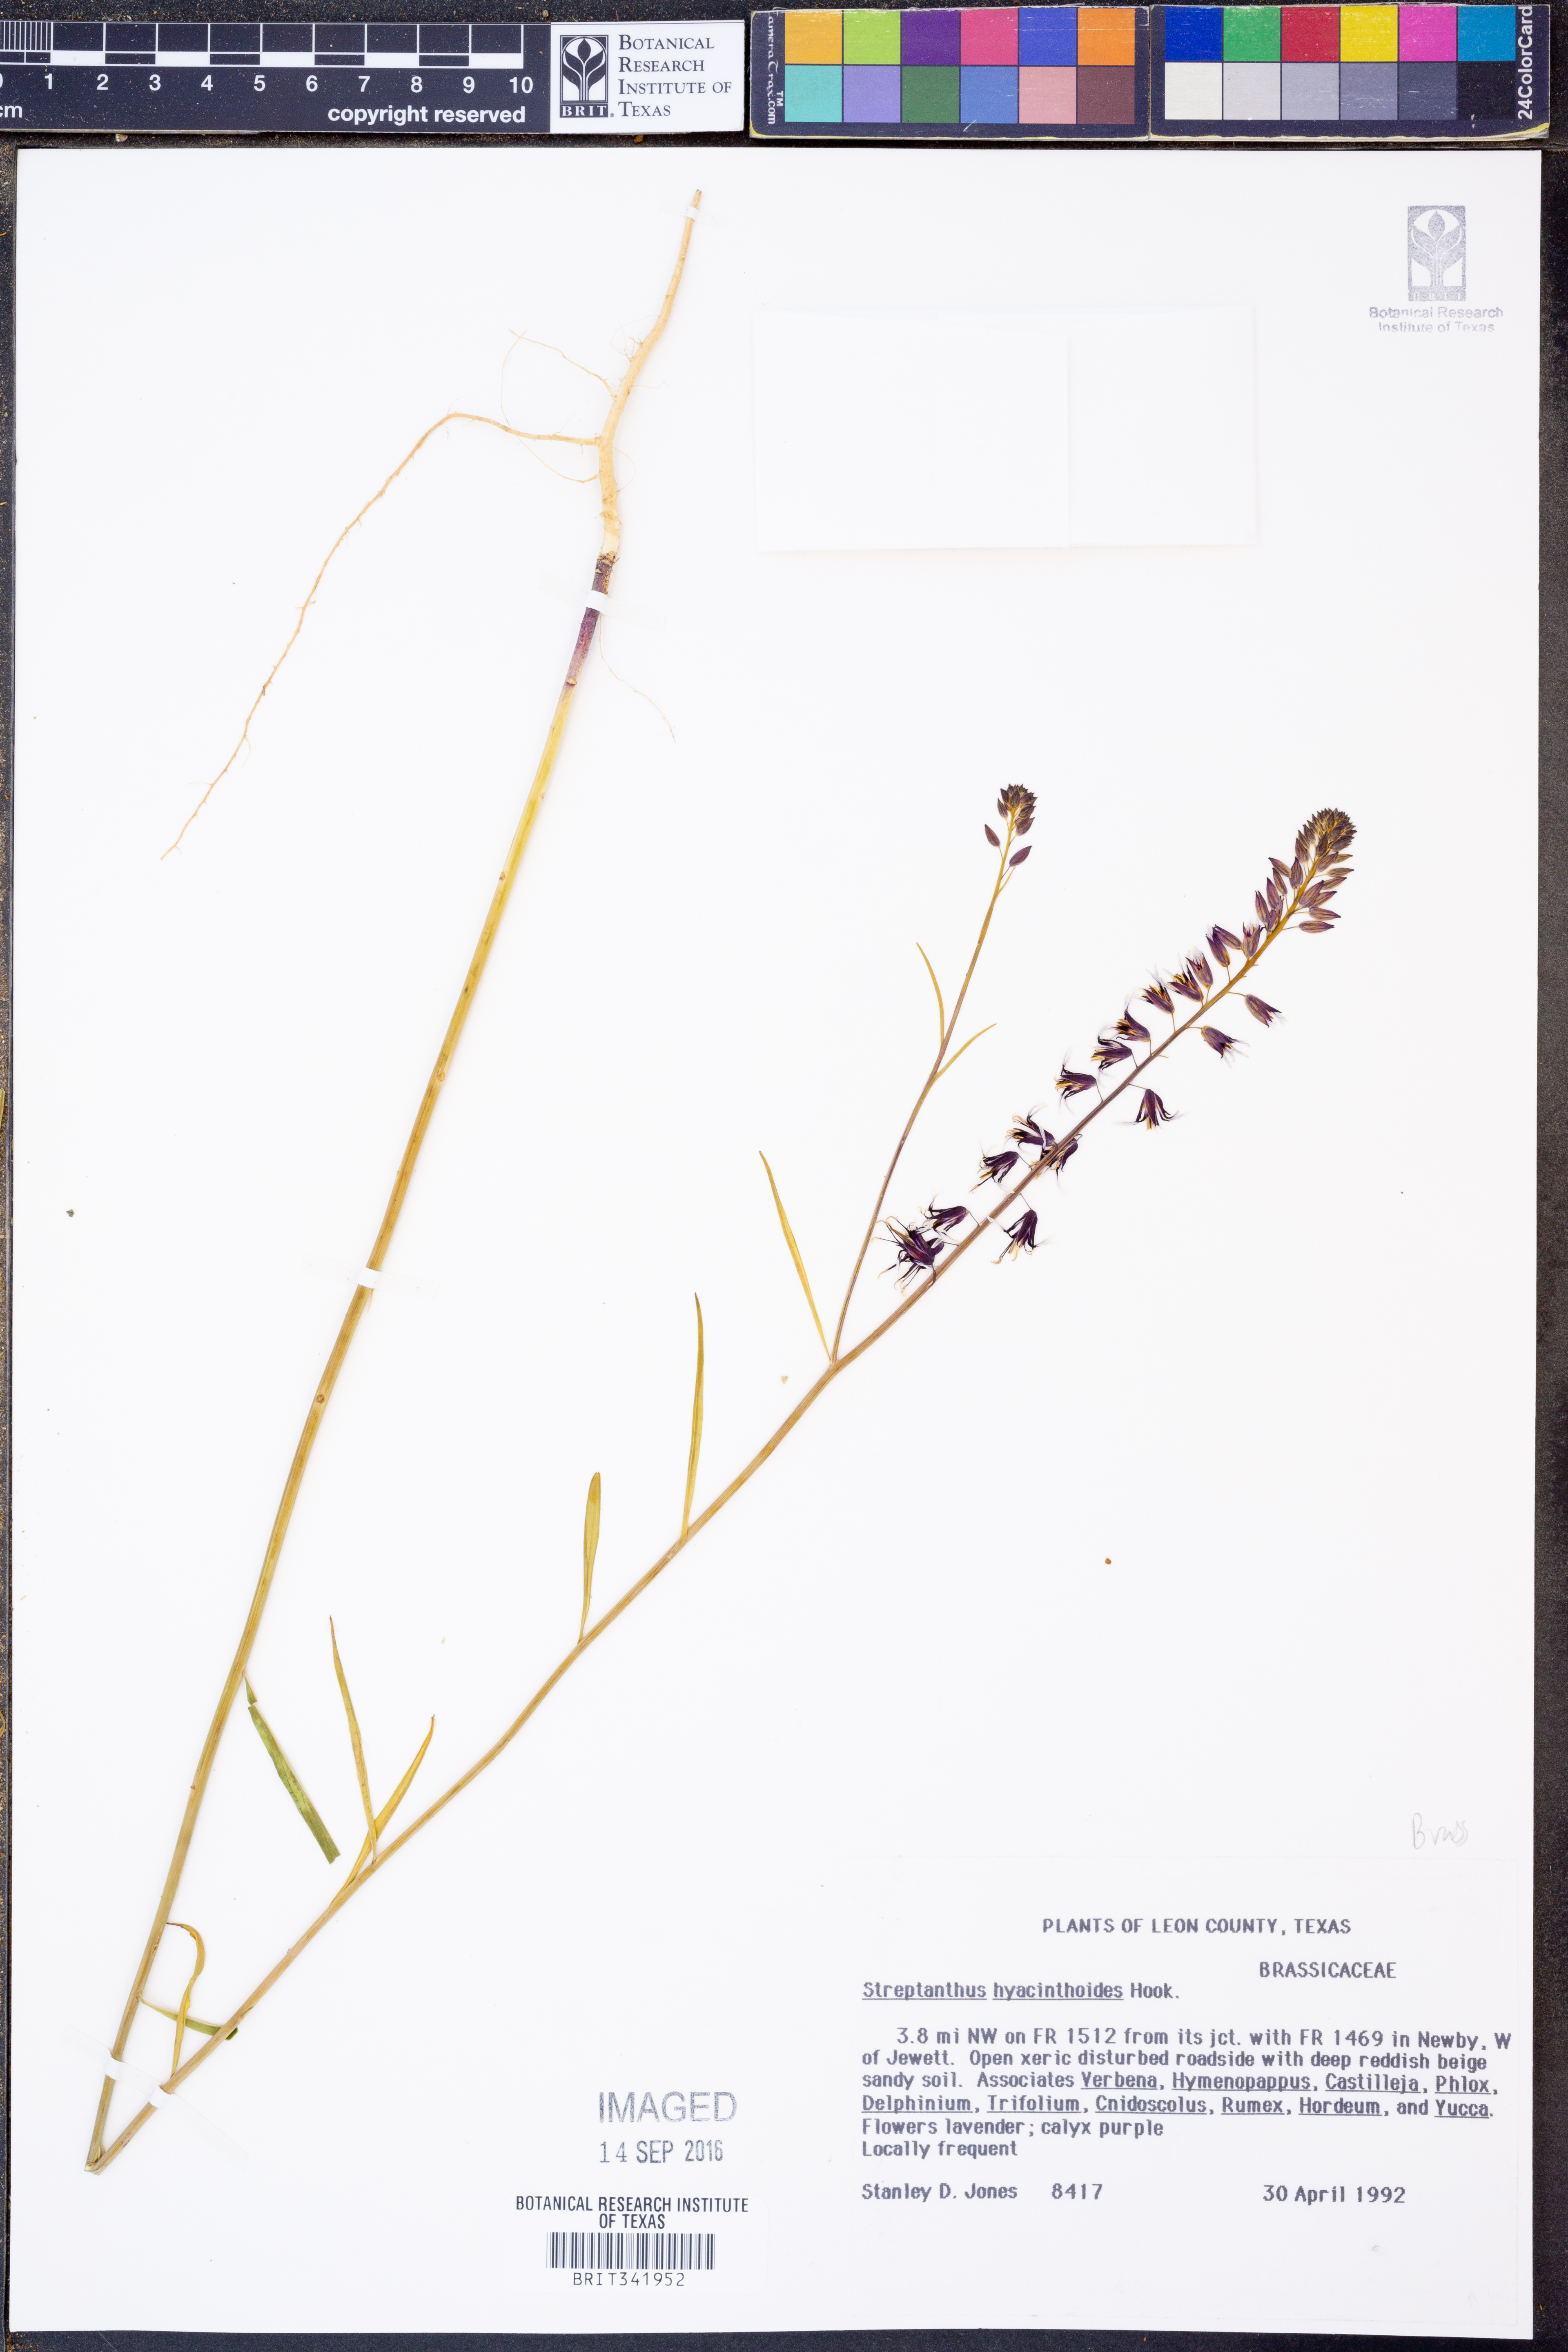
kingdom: Plantae
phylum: Tracheophyta
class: Magnoliopsida
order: Brassicales
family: Brassicaceae
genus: Streptanthus
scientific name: Streptanthus hyacinthoides
